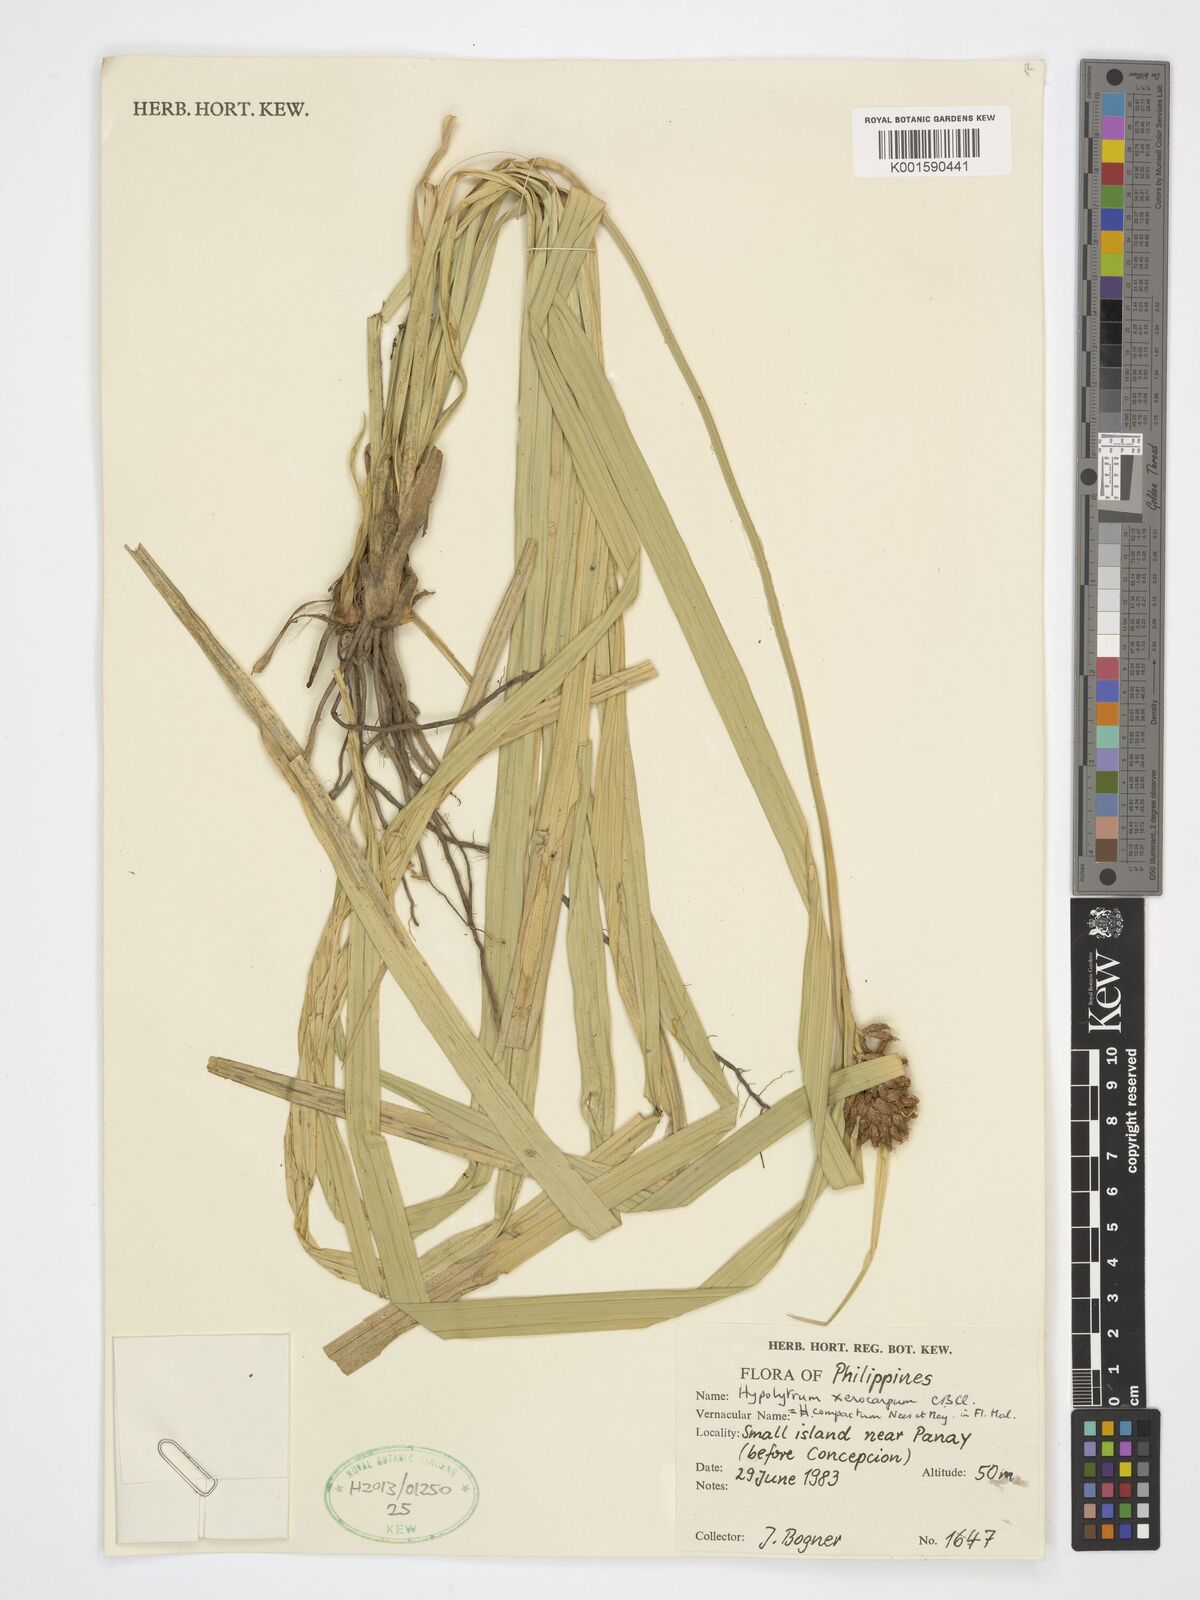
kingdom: Plantae
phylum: Tracheophyta
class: Liliopsida
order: Poales
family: Cyperaceae
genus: Hypolytrum
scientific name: Hypolytrum compactum
